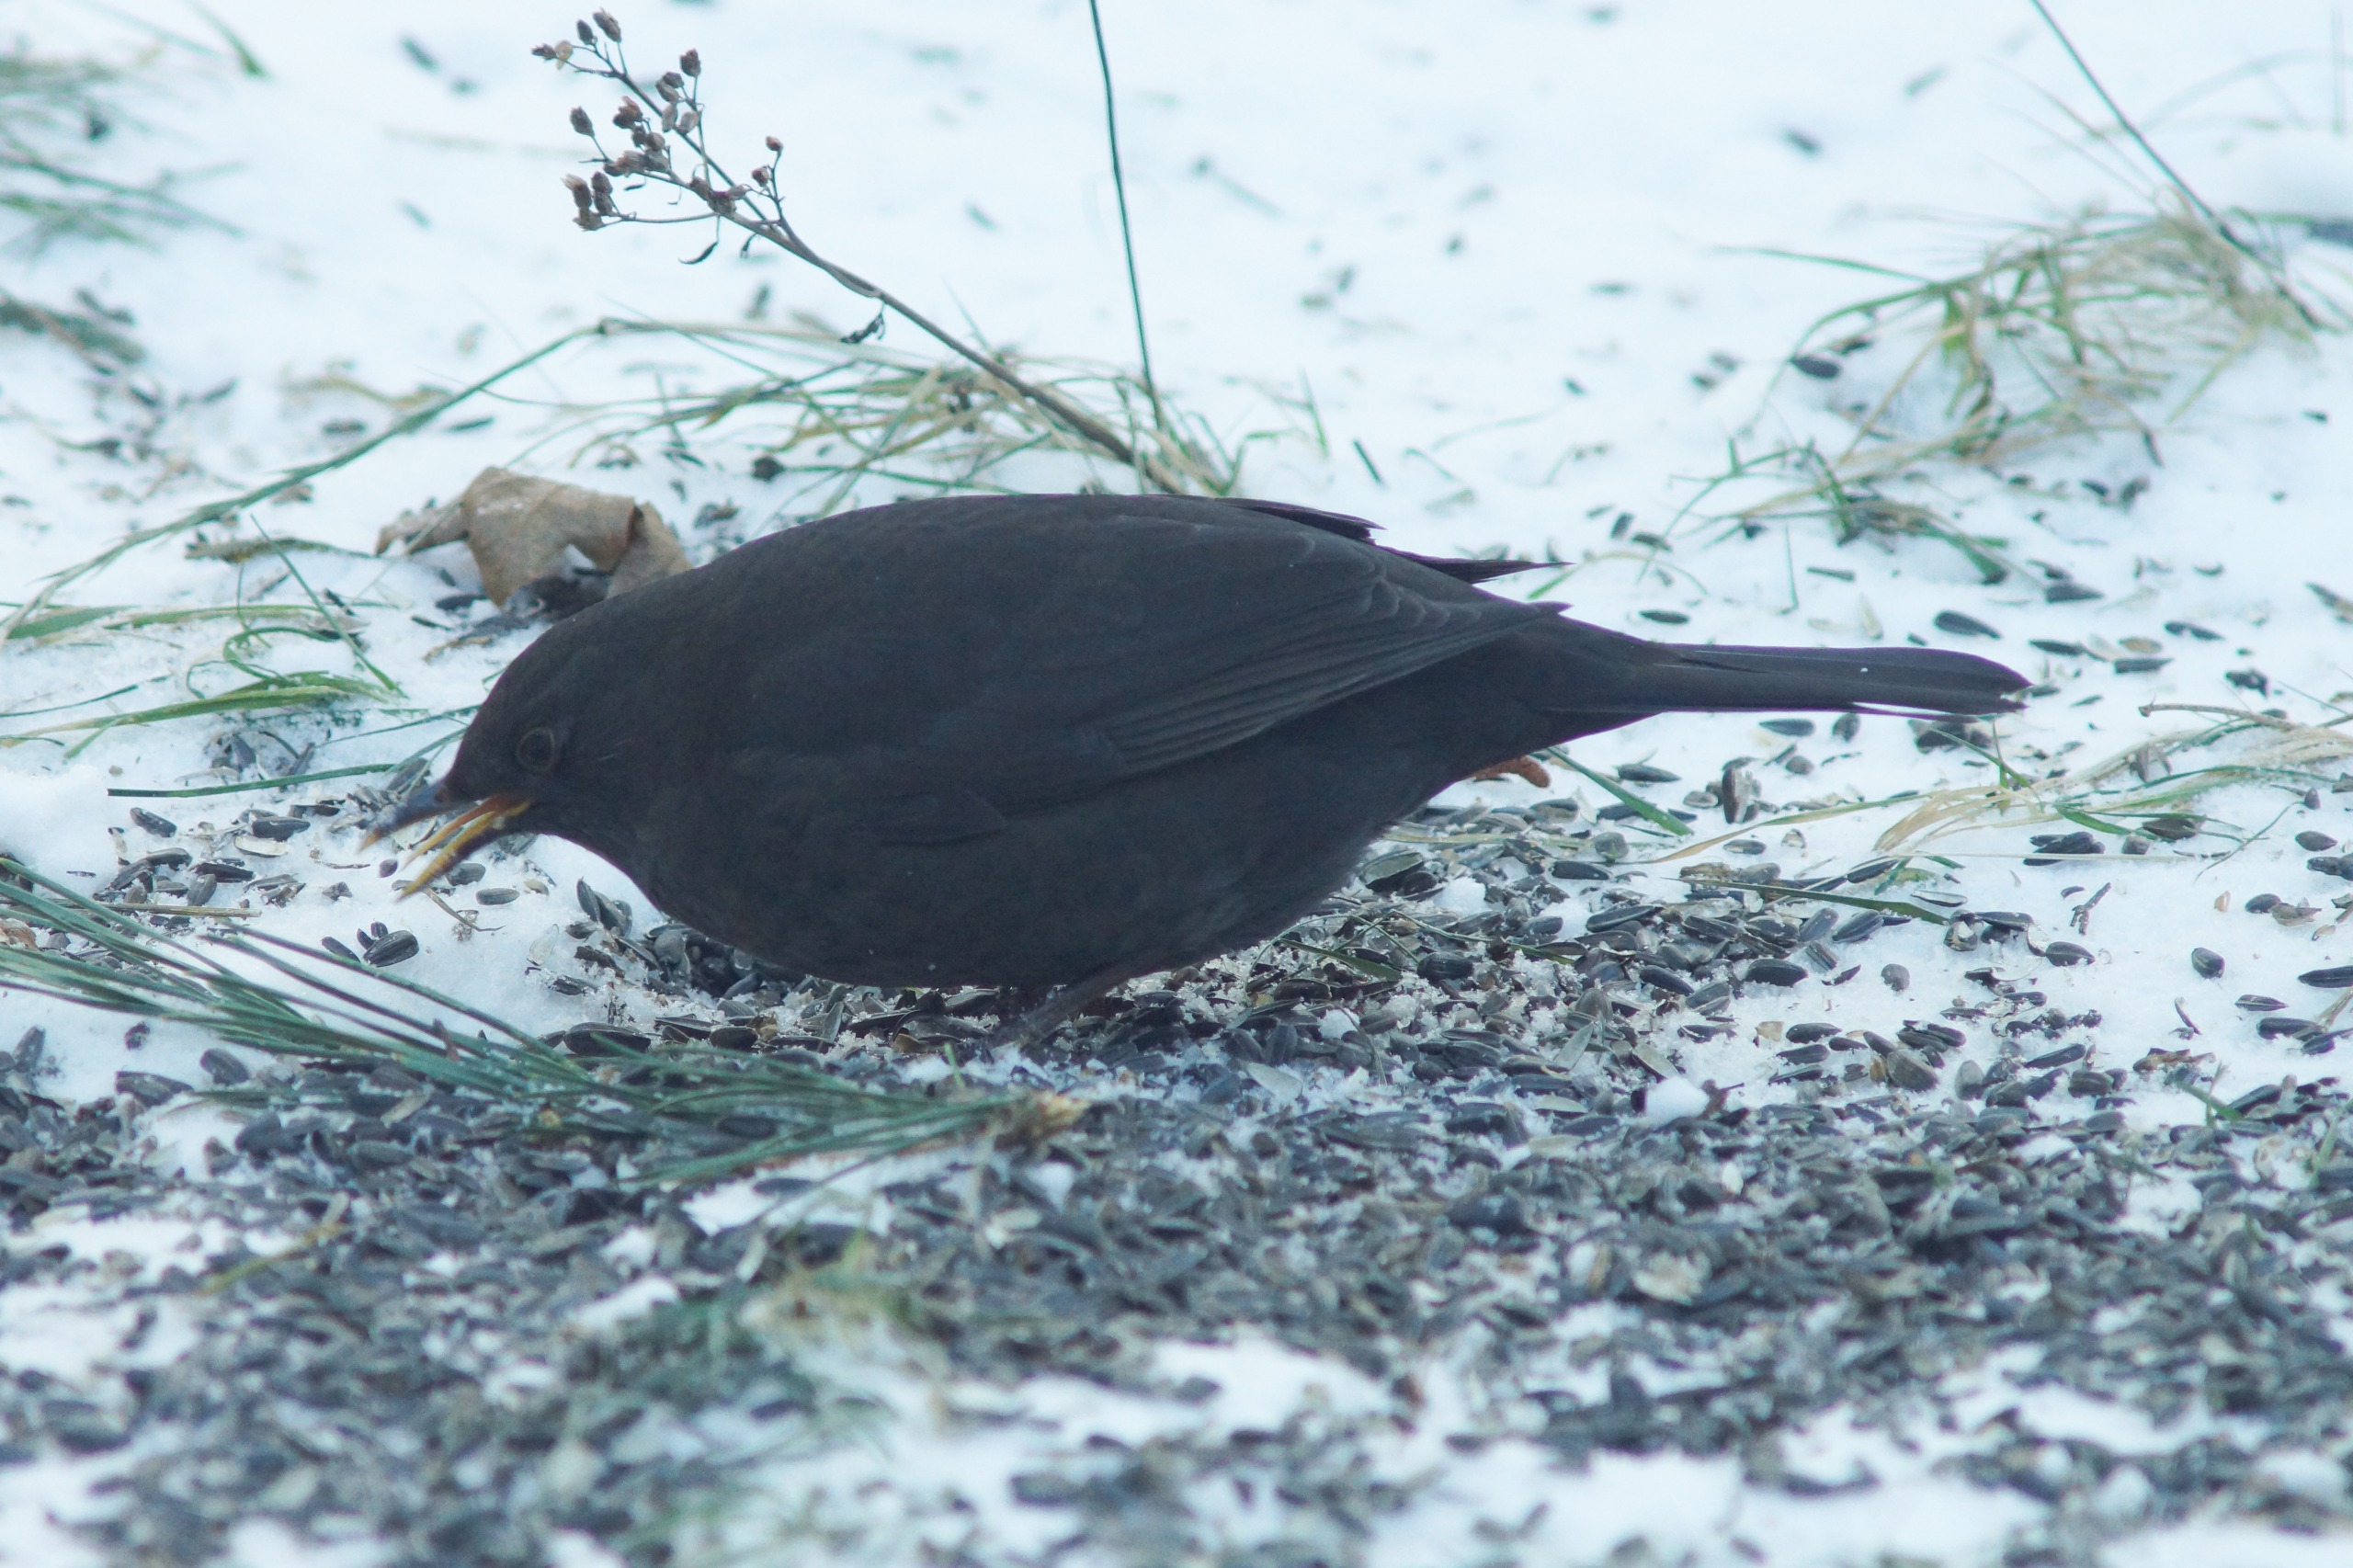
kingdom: Animalia
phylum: Chordata
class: Aves
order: Passeriformes
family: Turdidae
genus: Turdus
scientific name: Turdus merula
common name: Solsort
